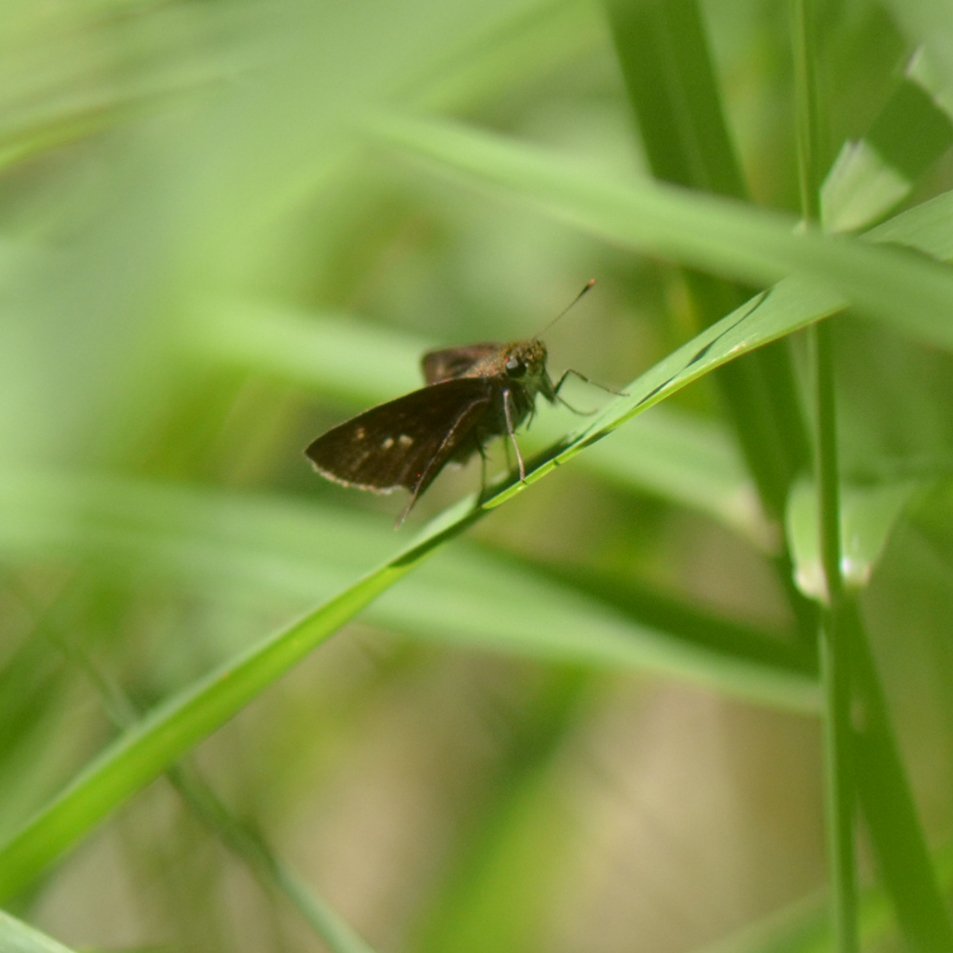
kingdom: Animalia
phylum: Arthropoda
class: Insecta
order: Lepidoptera
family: Hesperiidae
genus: Euphyes
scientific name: Euphyes vestris
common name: Dun Skipper
